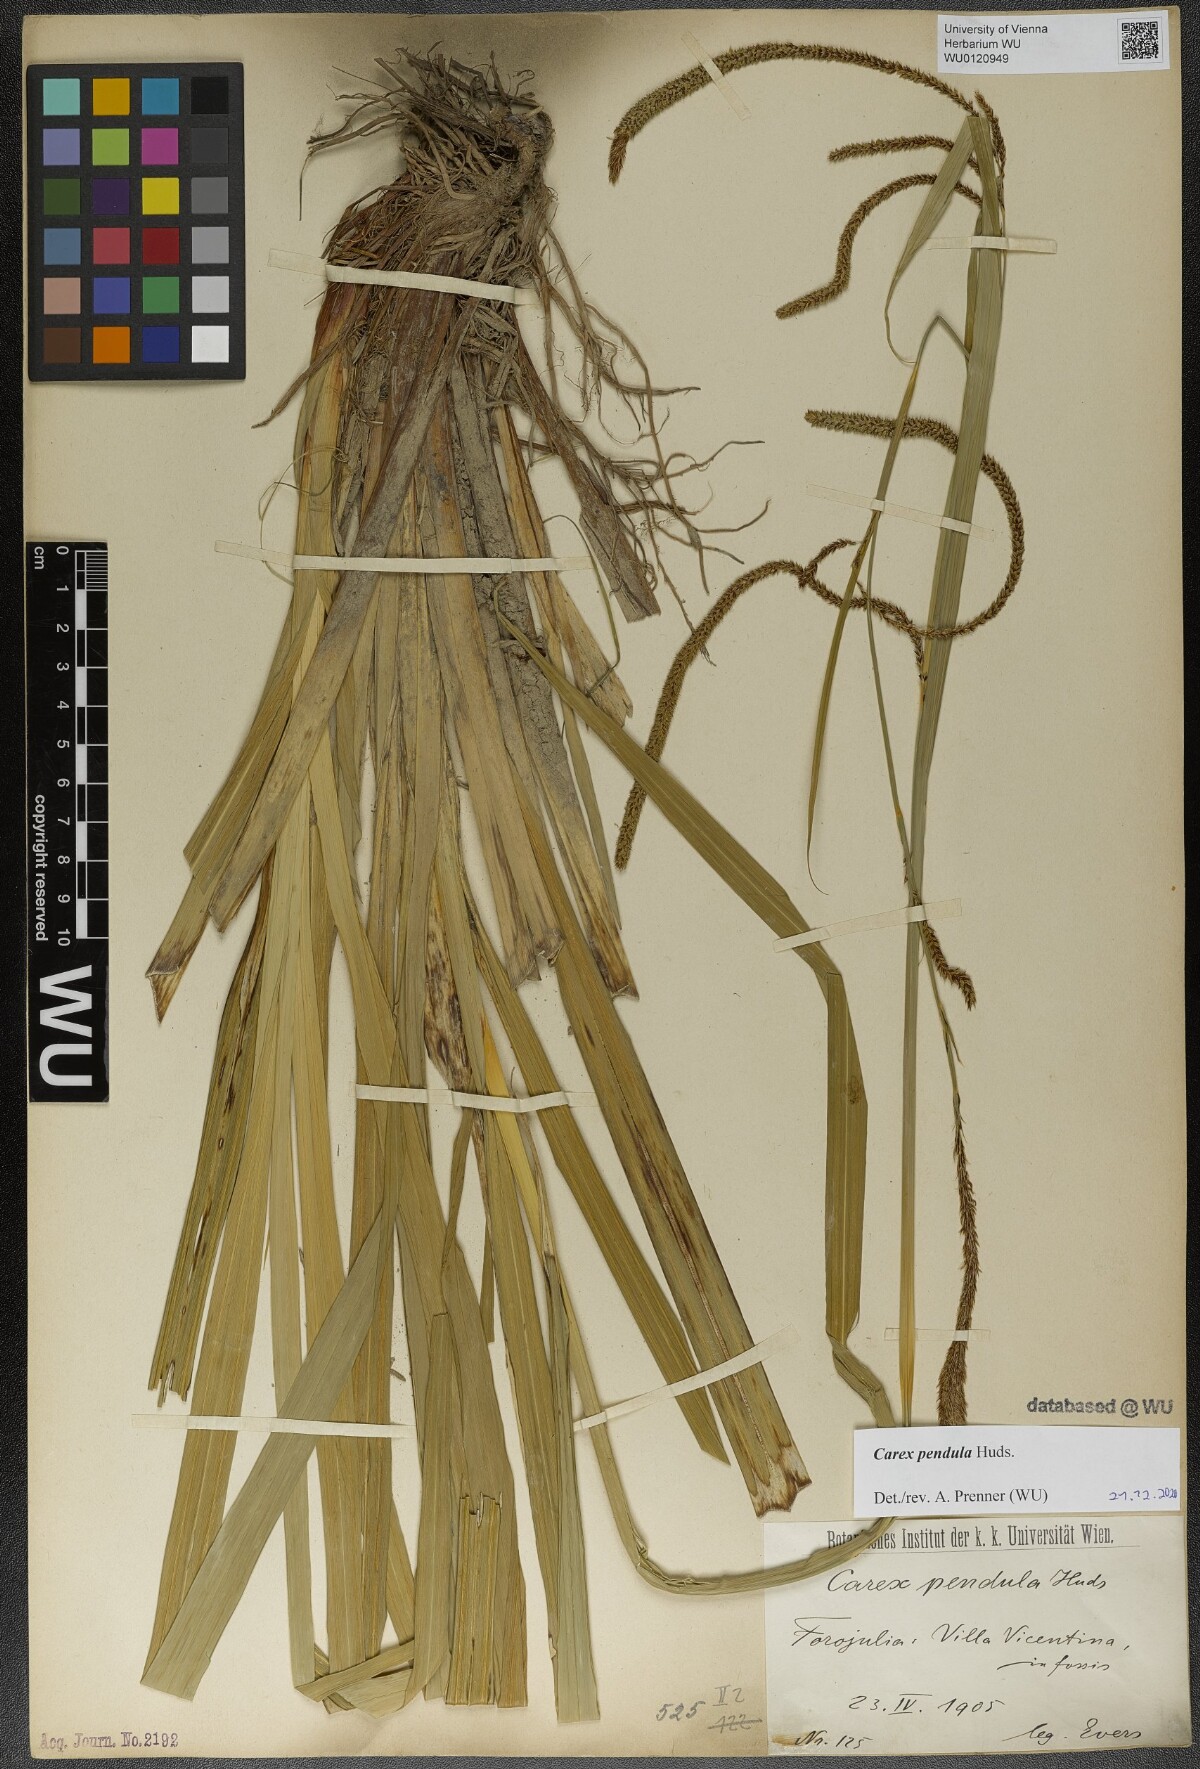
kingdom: Plantae
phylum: Tracheophyta
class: Liliopsida
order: Poales
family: Cyperaceae
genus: Carex
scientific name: Carex pendula
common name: Pendulous sedge
